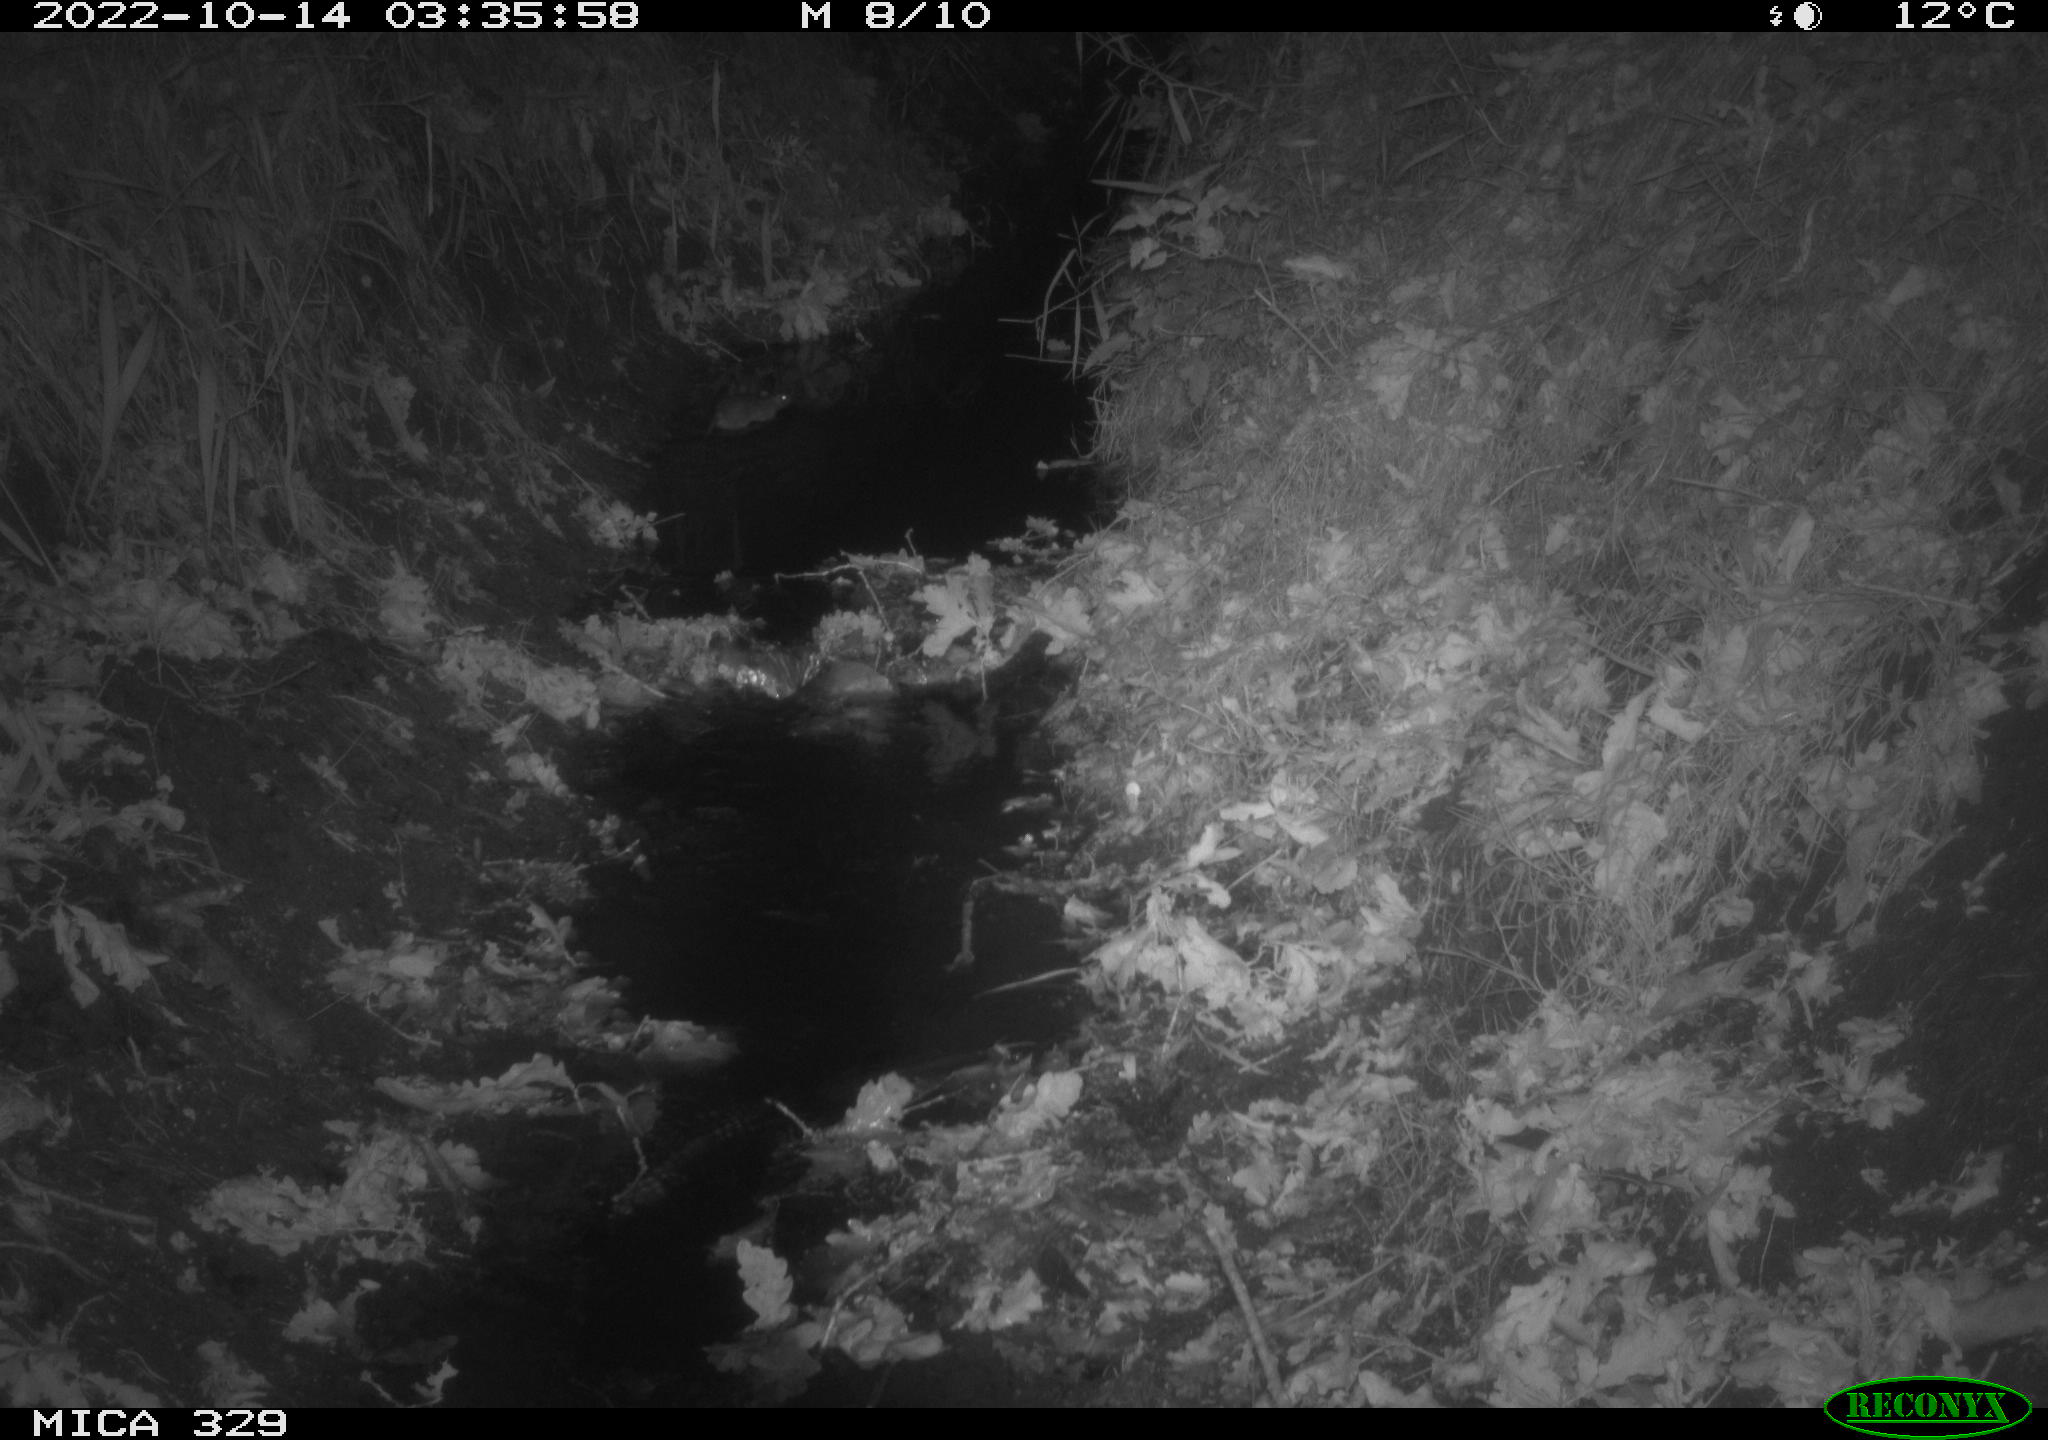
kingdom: Animalia
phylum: Chordata
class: Mammalia
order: Rodentia
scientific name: Rodentia
